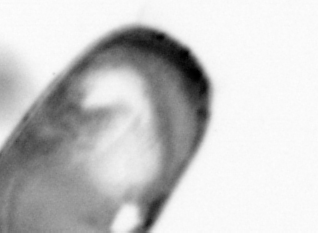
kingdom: Animalia
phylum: Arthropoda
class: Copepoda
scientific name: Copepoda
